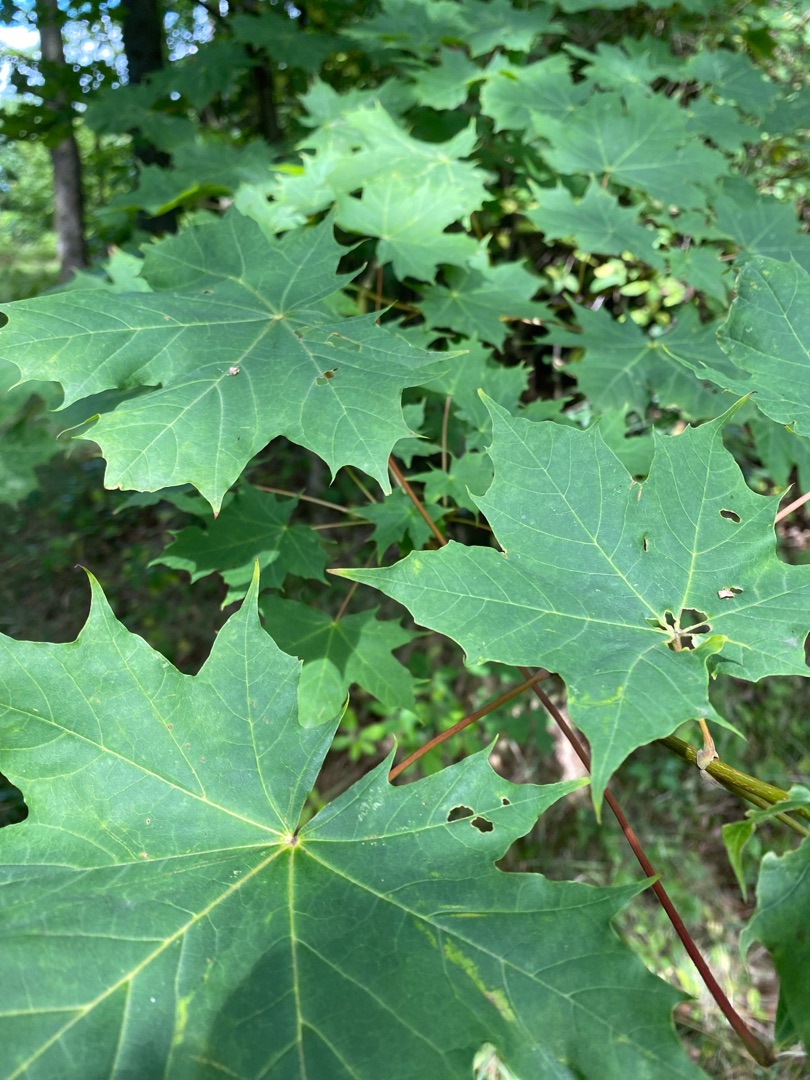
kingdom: Plantae
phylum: Tracheophyta
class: Magnoliopsida
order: Sapindales
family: Sapindaceae
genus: Acer
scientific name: Acer platanoides
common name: Spids-løn
